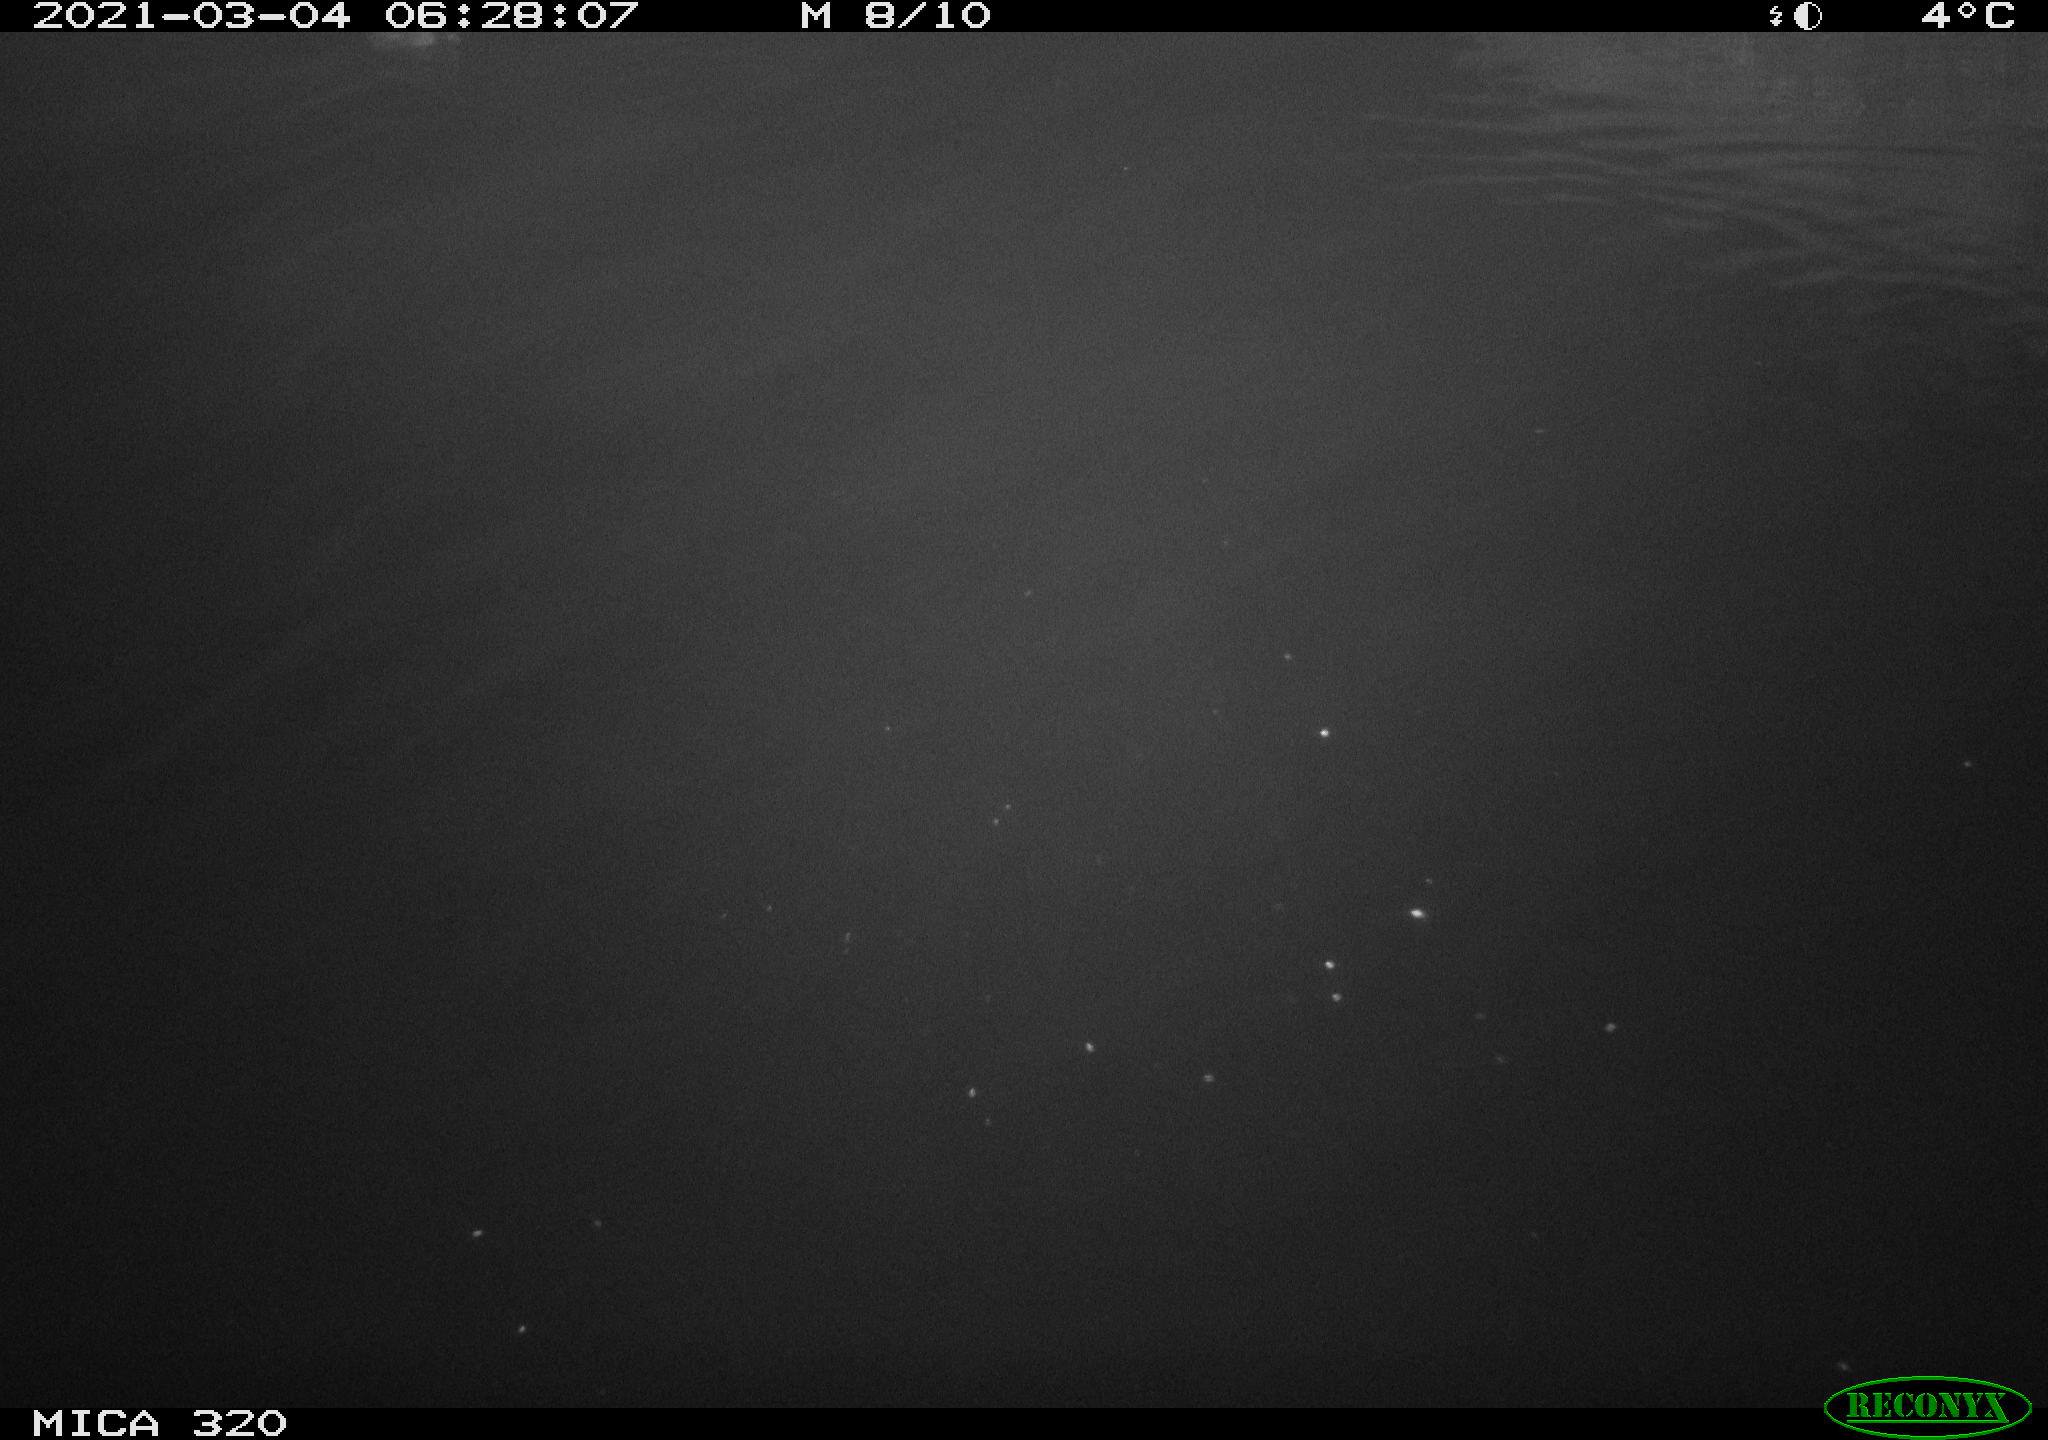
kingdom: Animalia
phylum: Chordata
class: Aves
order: Gruiformes
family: Rallidae
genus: Gallinula
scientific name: Gallinula chloropus
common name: Common moorhen
